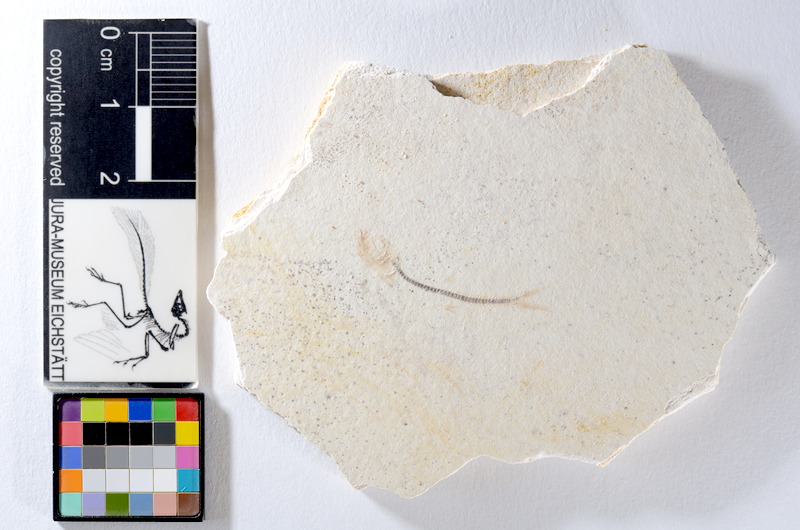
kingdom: Animalia
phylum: Chordata
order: Salmoniformes
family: Orthogonikleithridae
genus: Orthogonikleithrus
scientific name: Orthogonikleithrus hoelli
